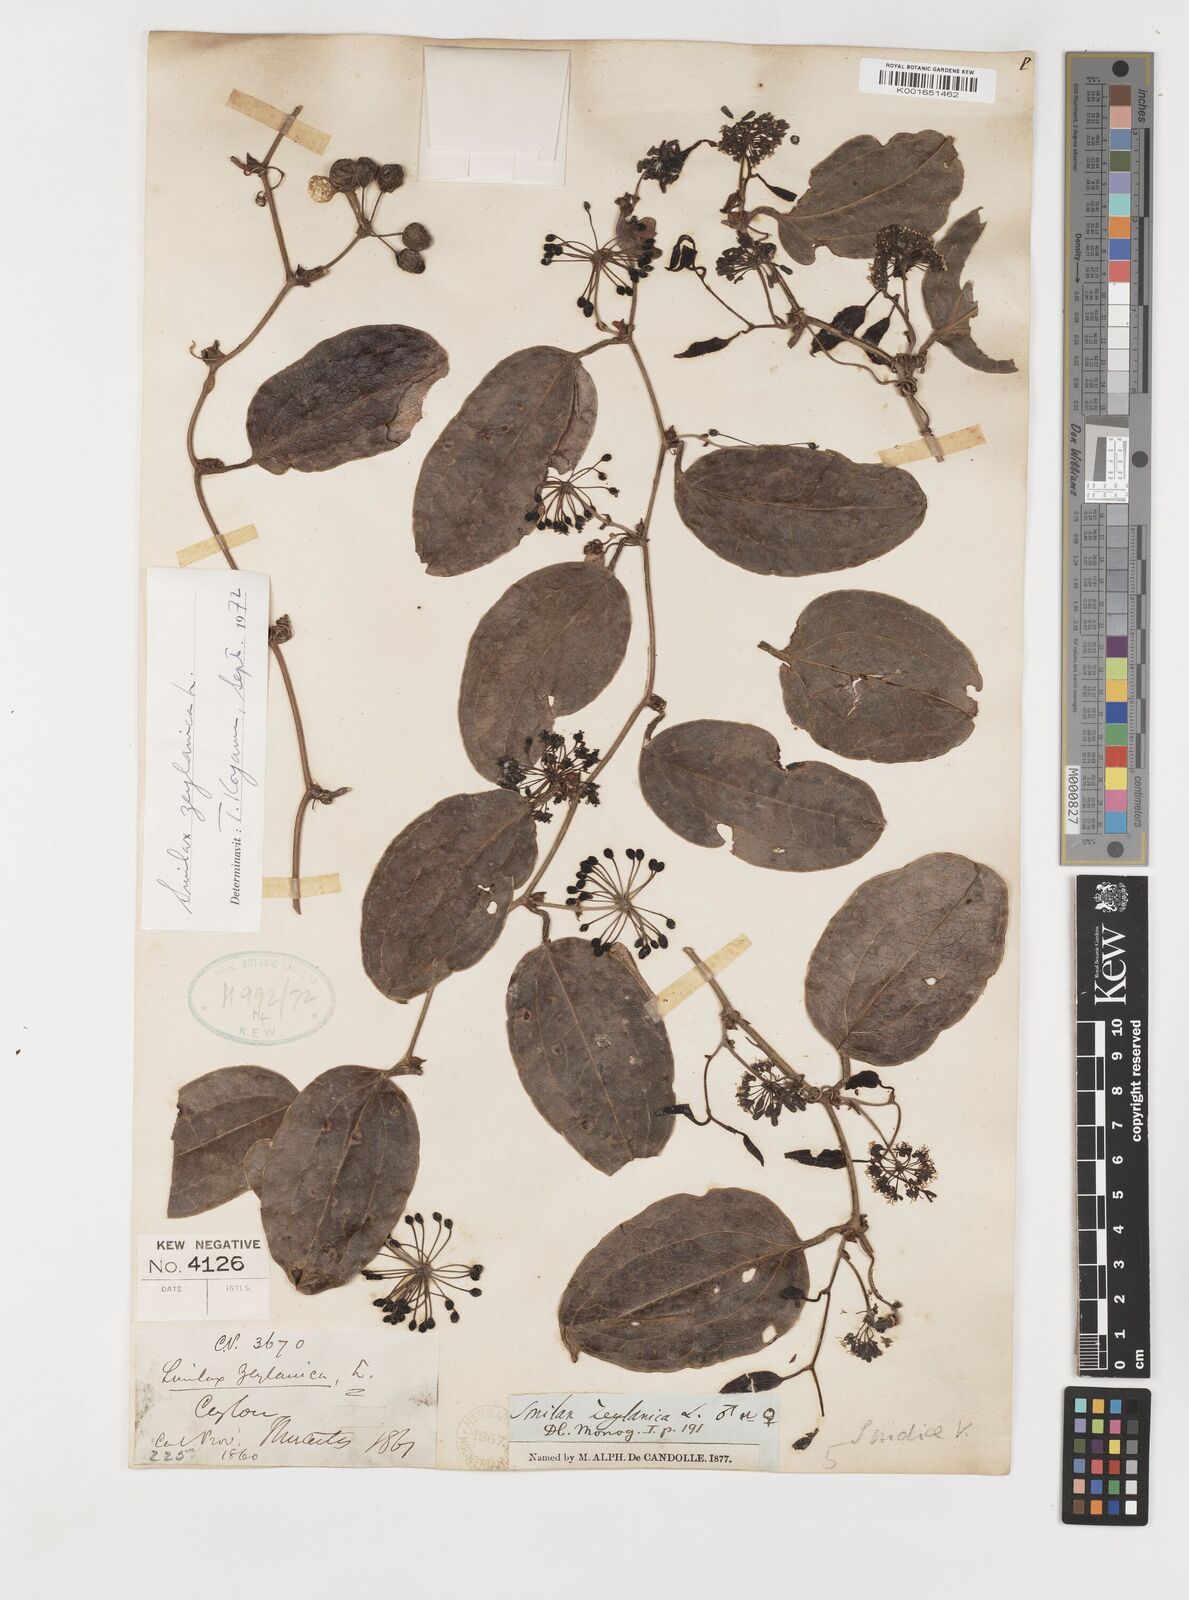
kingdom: Plantae
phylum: Tracheophyta
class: Liliopsida
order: Liliales
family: Smilacaceae
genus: Smilax
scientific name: Smilax zeylanica
